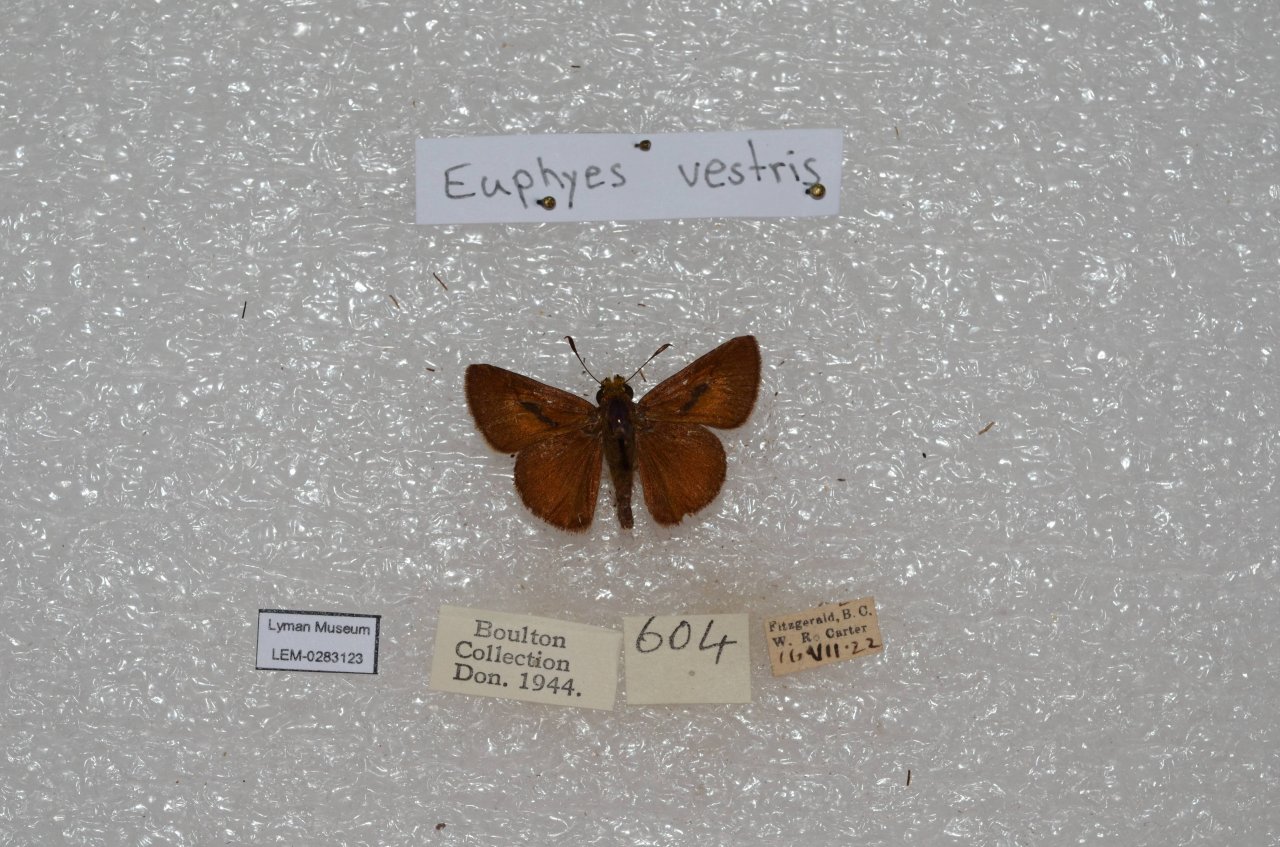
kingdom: Animalia
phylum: Arthropoda
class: Insecta
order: Lepidoptera
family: Hesperiidae
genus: Euphyes
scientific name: Euphyes vestris
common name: Dun Skipper
